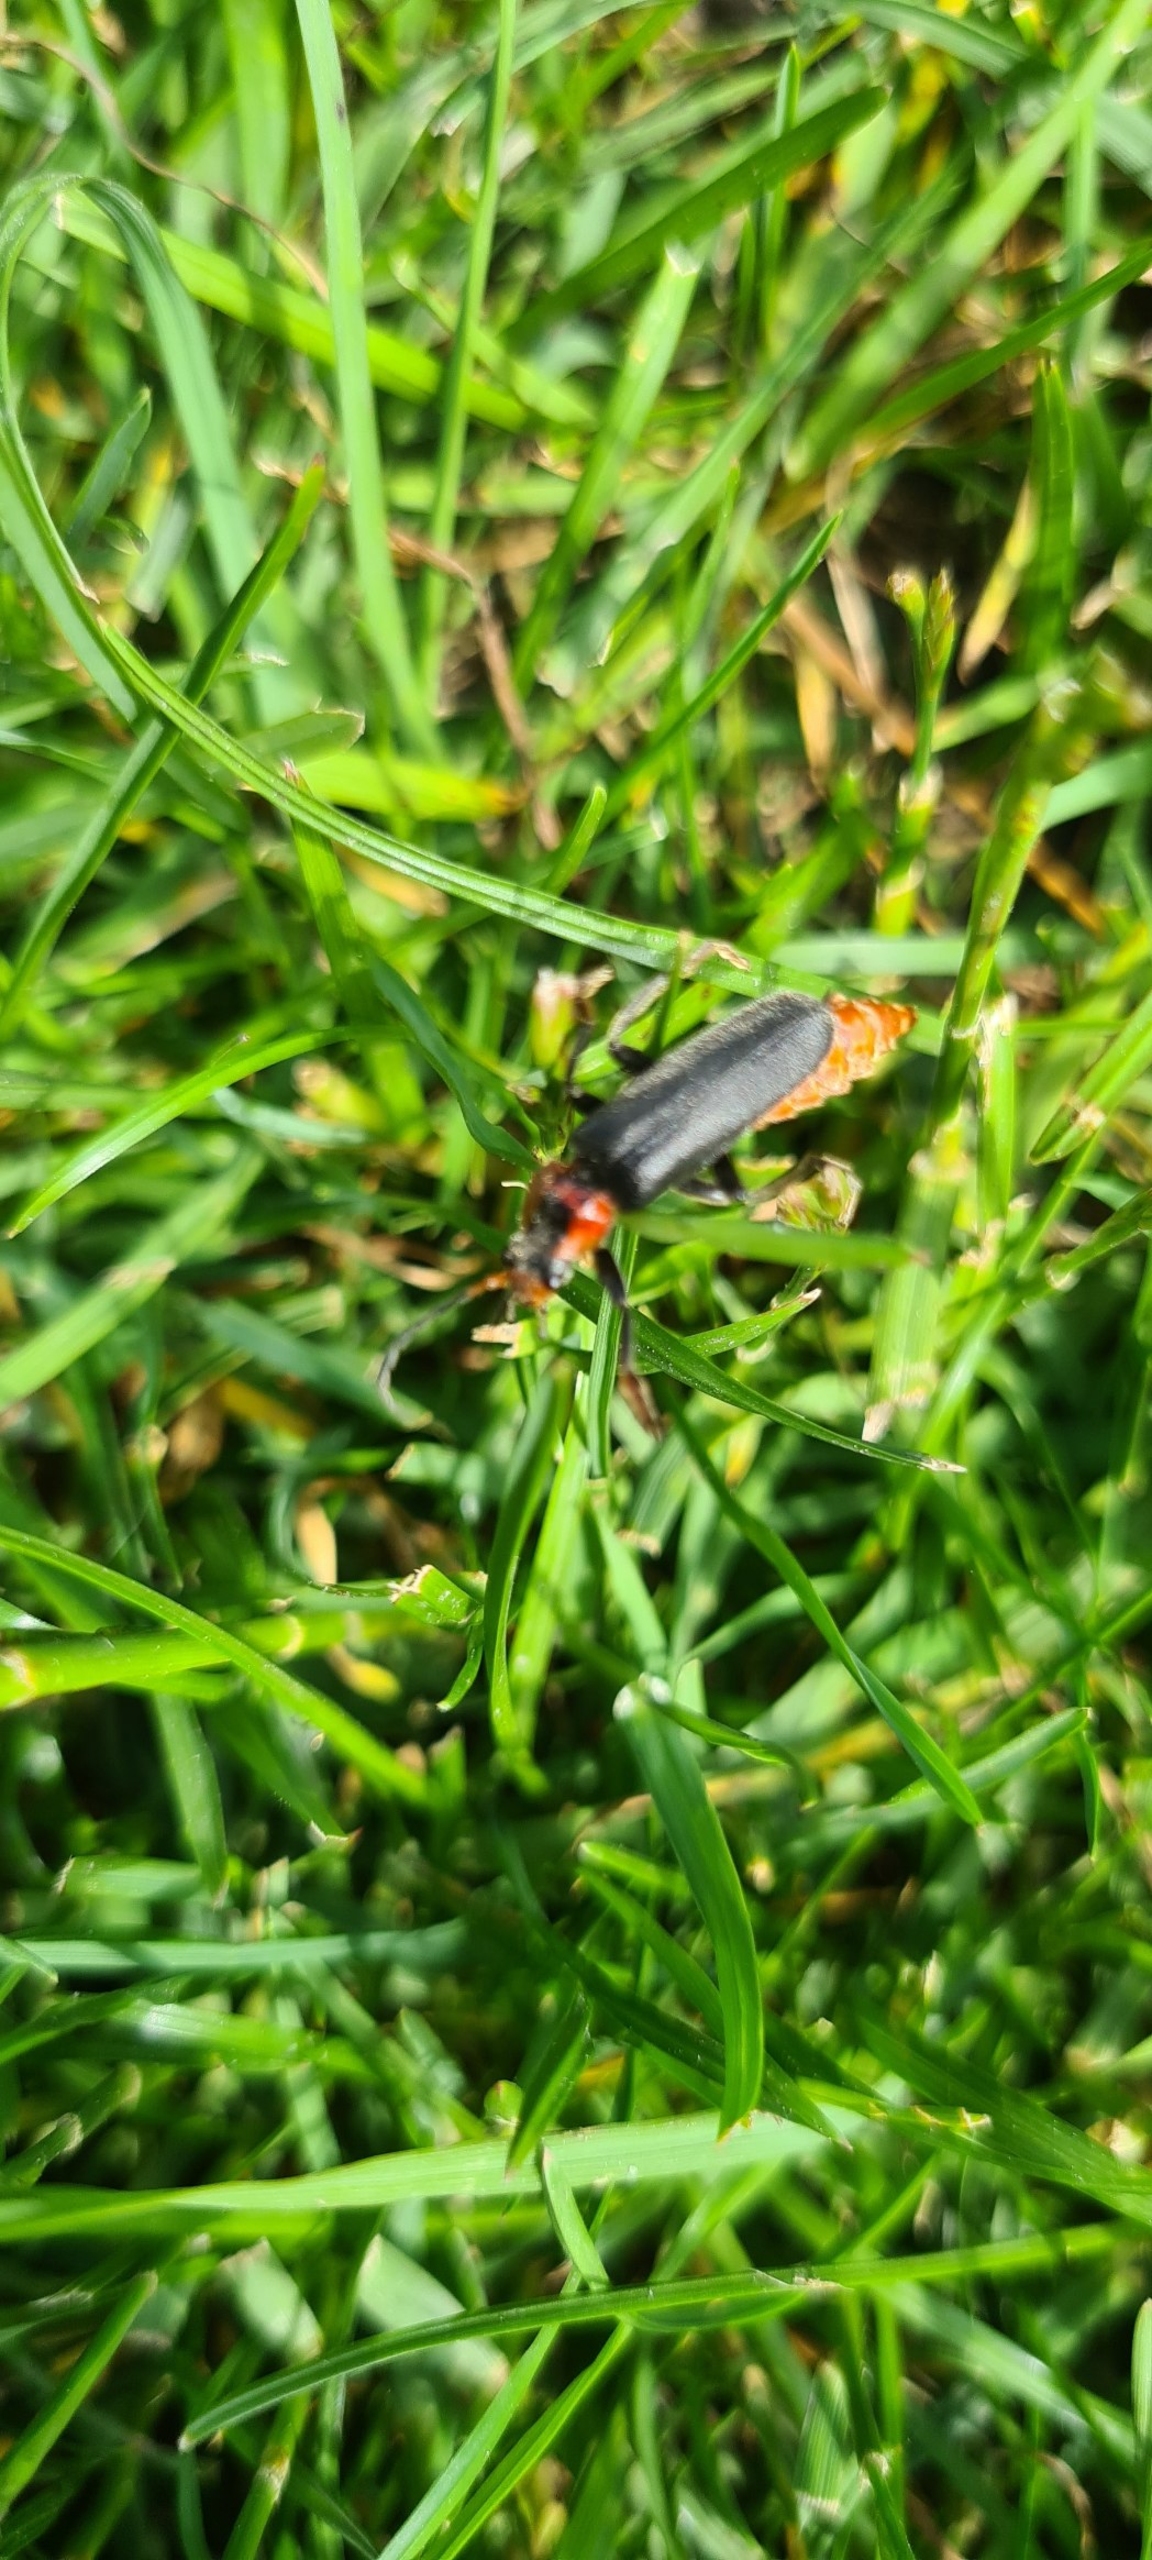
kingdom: Animalia
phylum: Arthropoda
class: Insecta
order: Coleoptera
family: Cantharidae
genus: Cantharis
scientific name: Cantharis fusca
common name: Stor blødvinge
